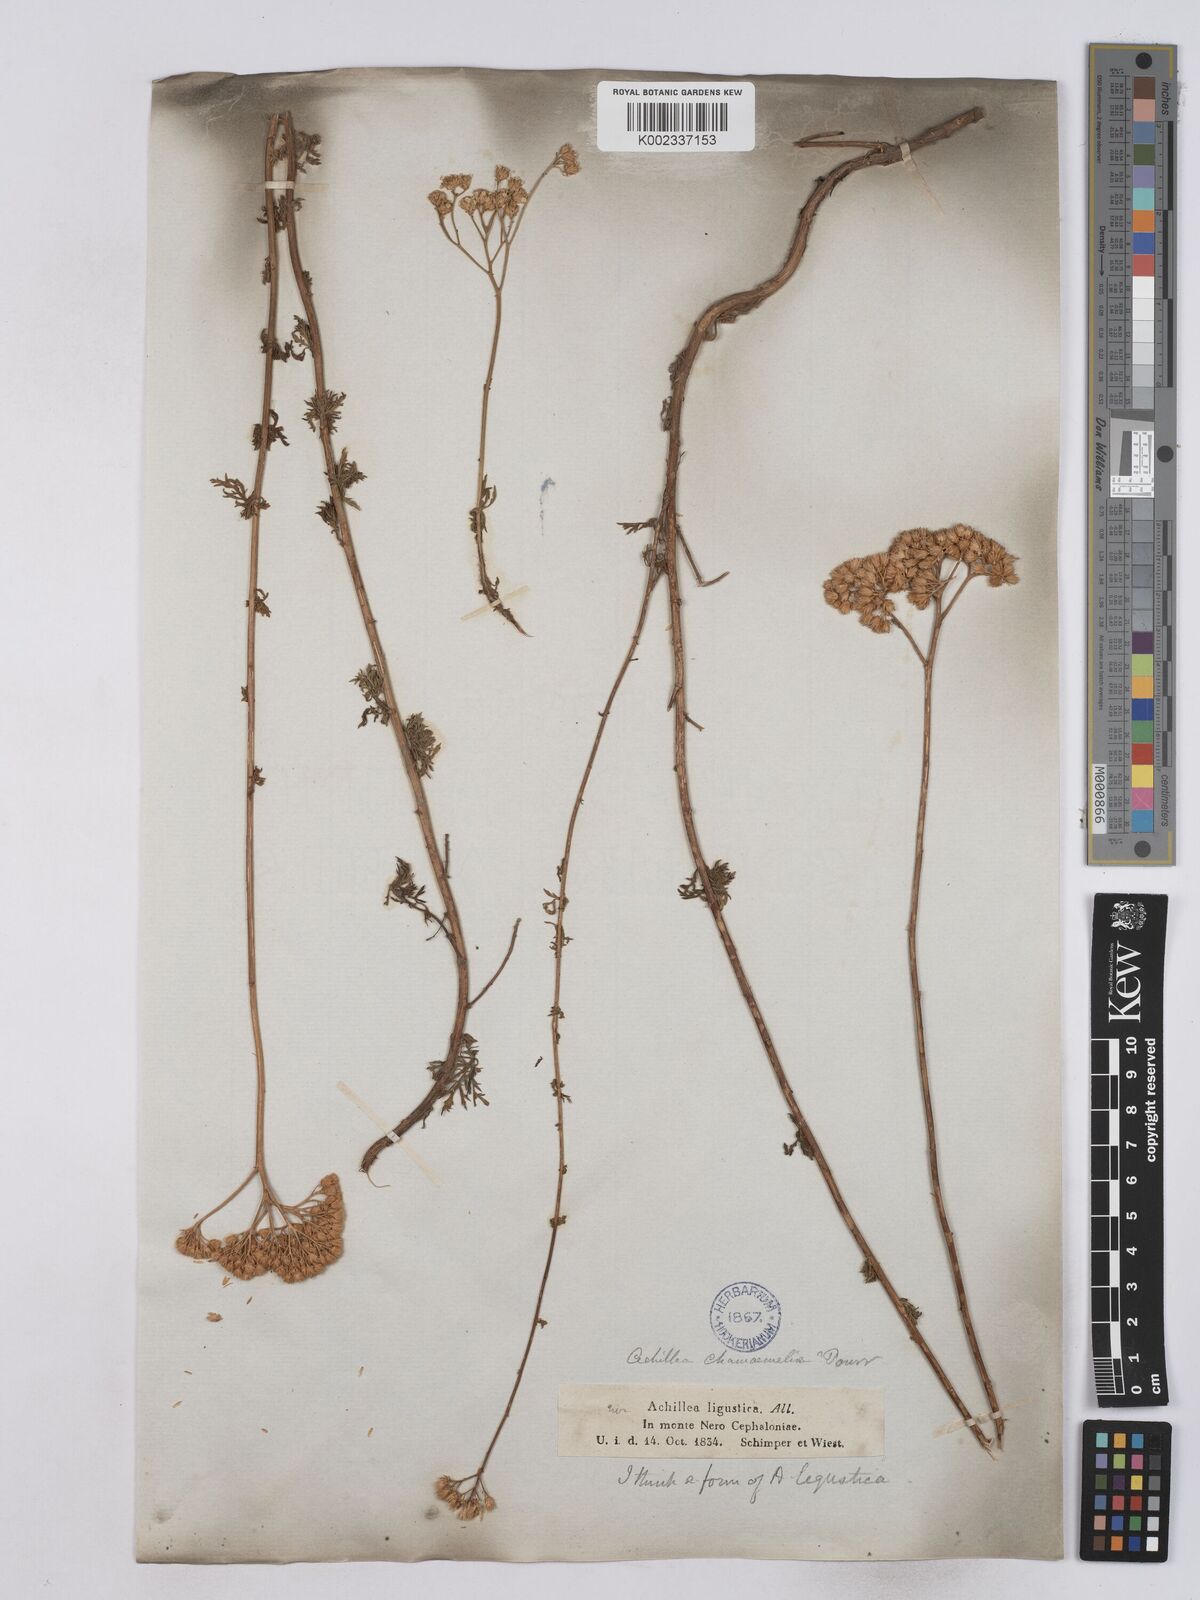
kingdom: Plantae
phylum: Tracheophyta
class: Magnoliopsida
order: Asterales
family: Asteraceae
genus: Achillea
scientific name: Achillea ligustica
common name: Southern yarrow
